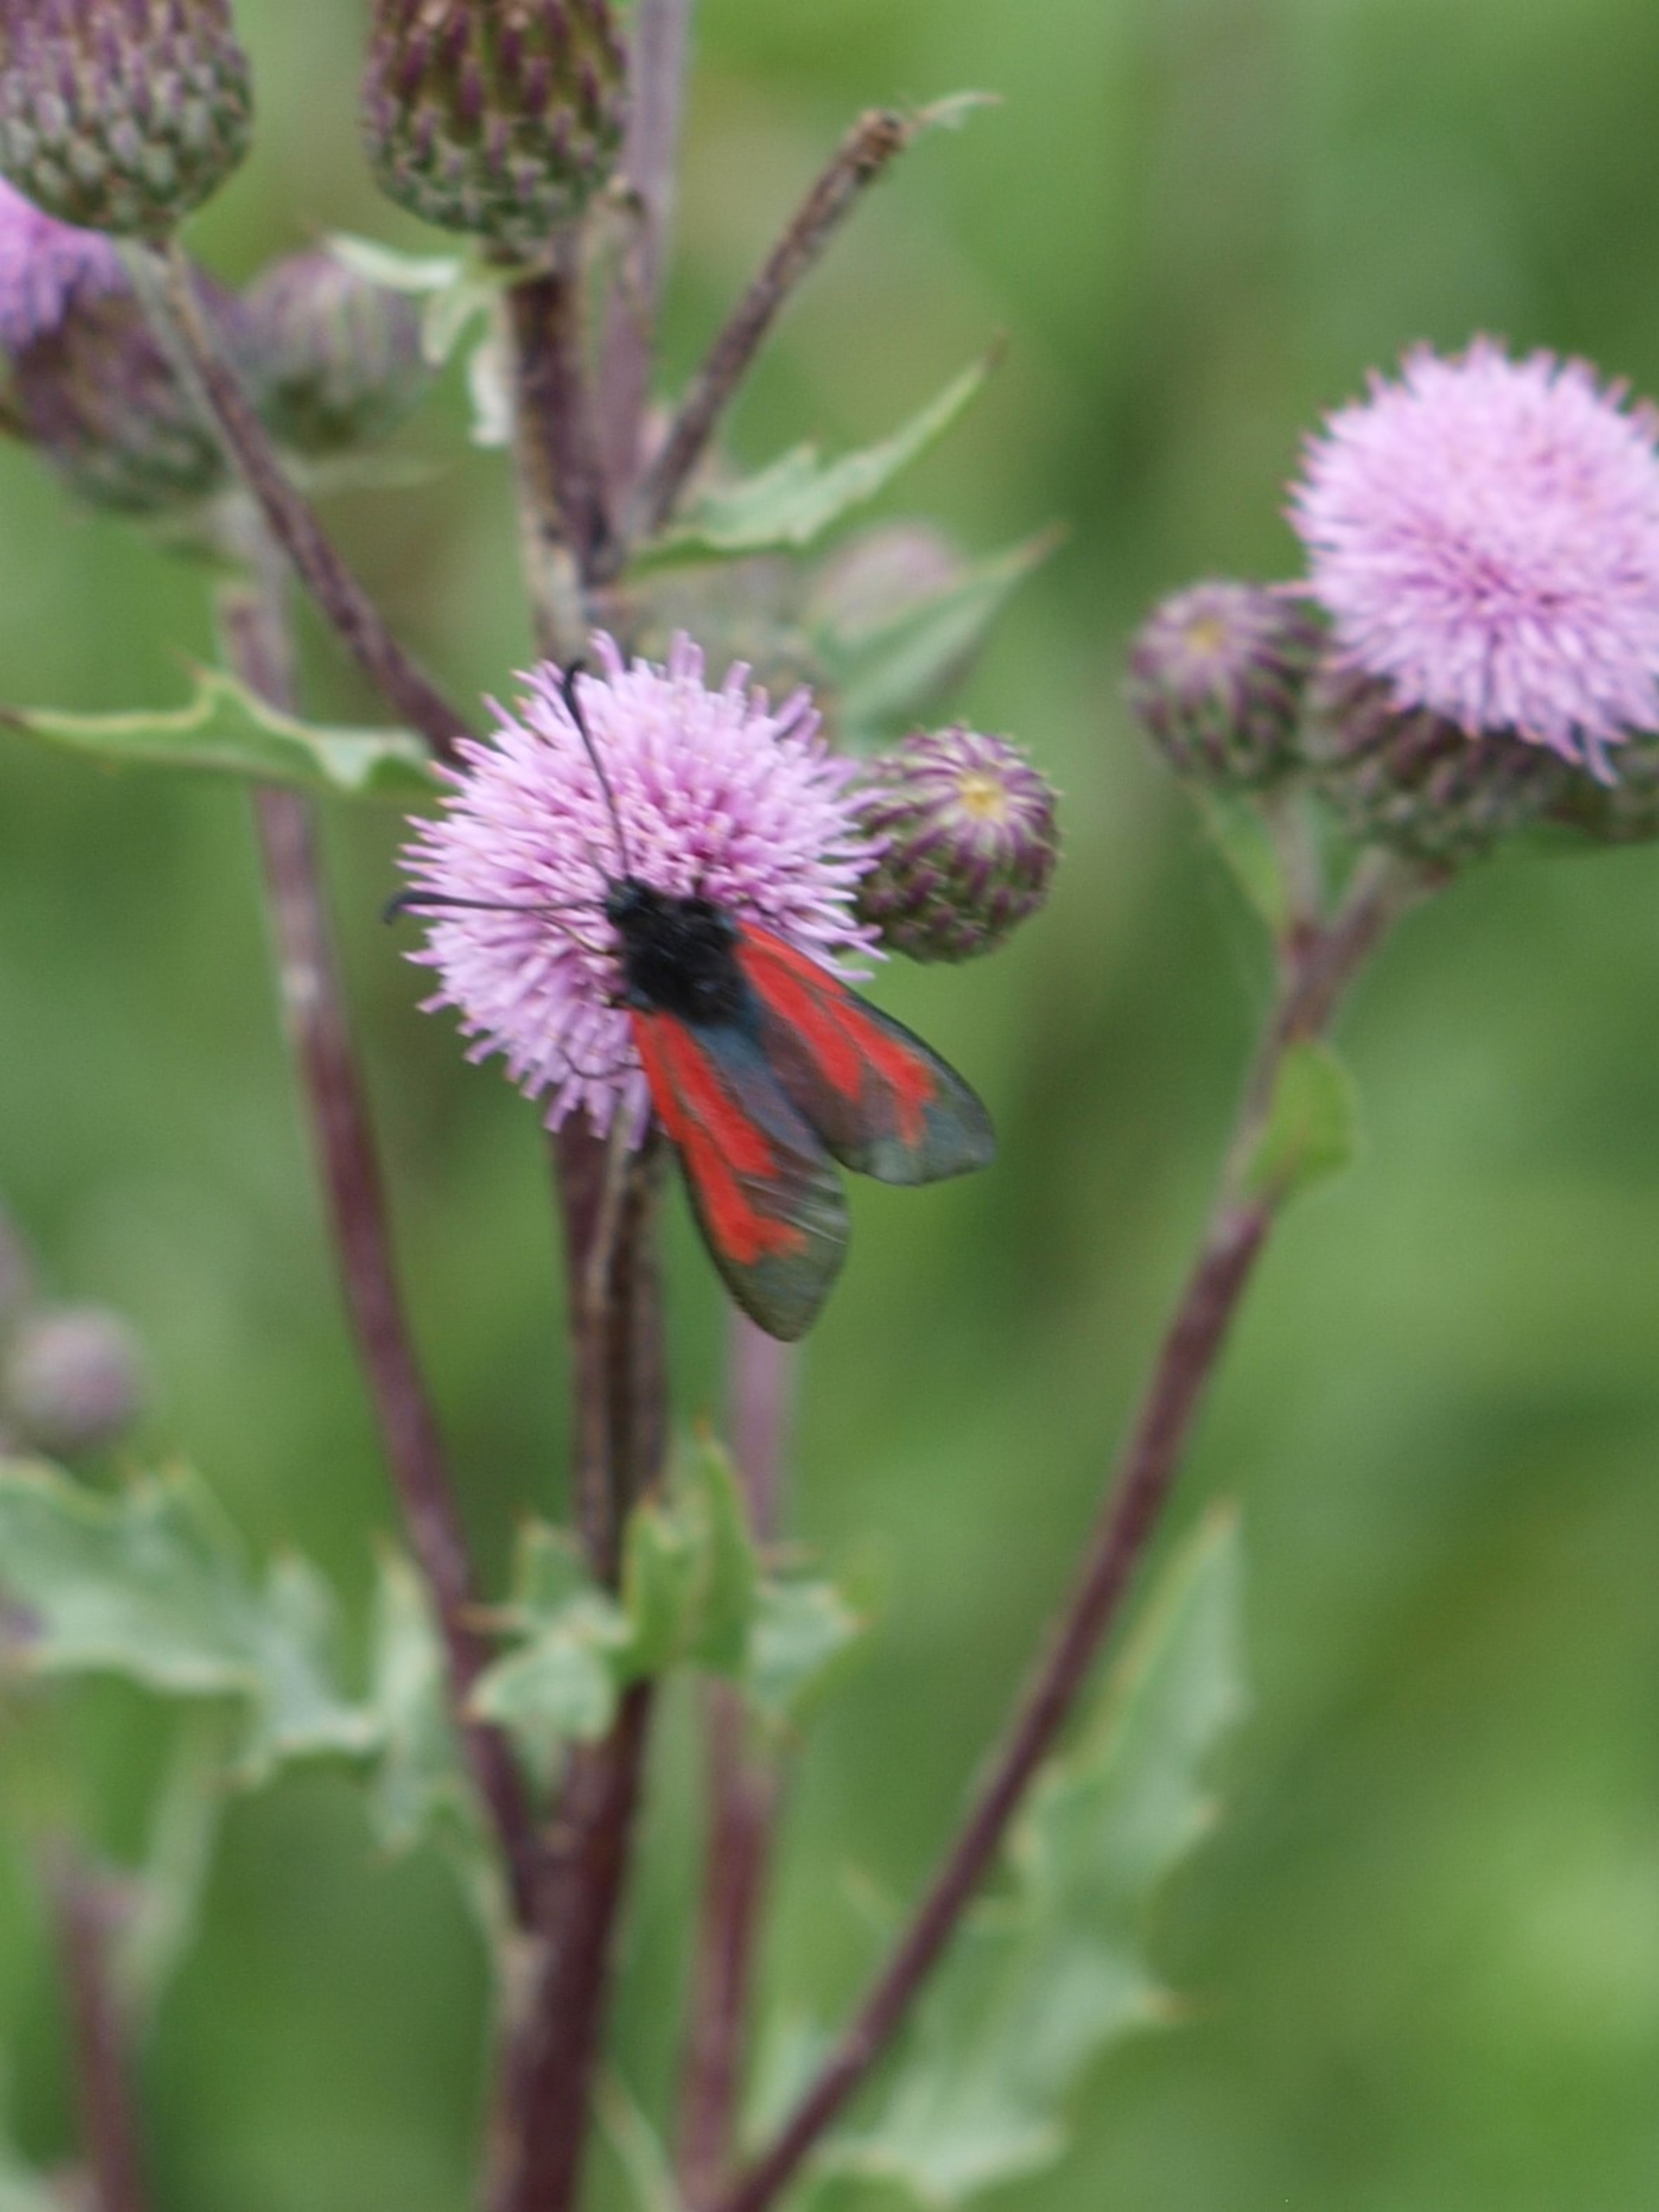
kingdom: Animalia
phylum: Arthropoda
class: Insecta
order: Lepidoptera
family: Zygaenidae
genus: Zygaena
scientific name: Zygaena minos
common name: Pimpernelkøllesværmer
